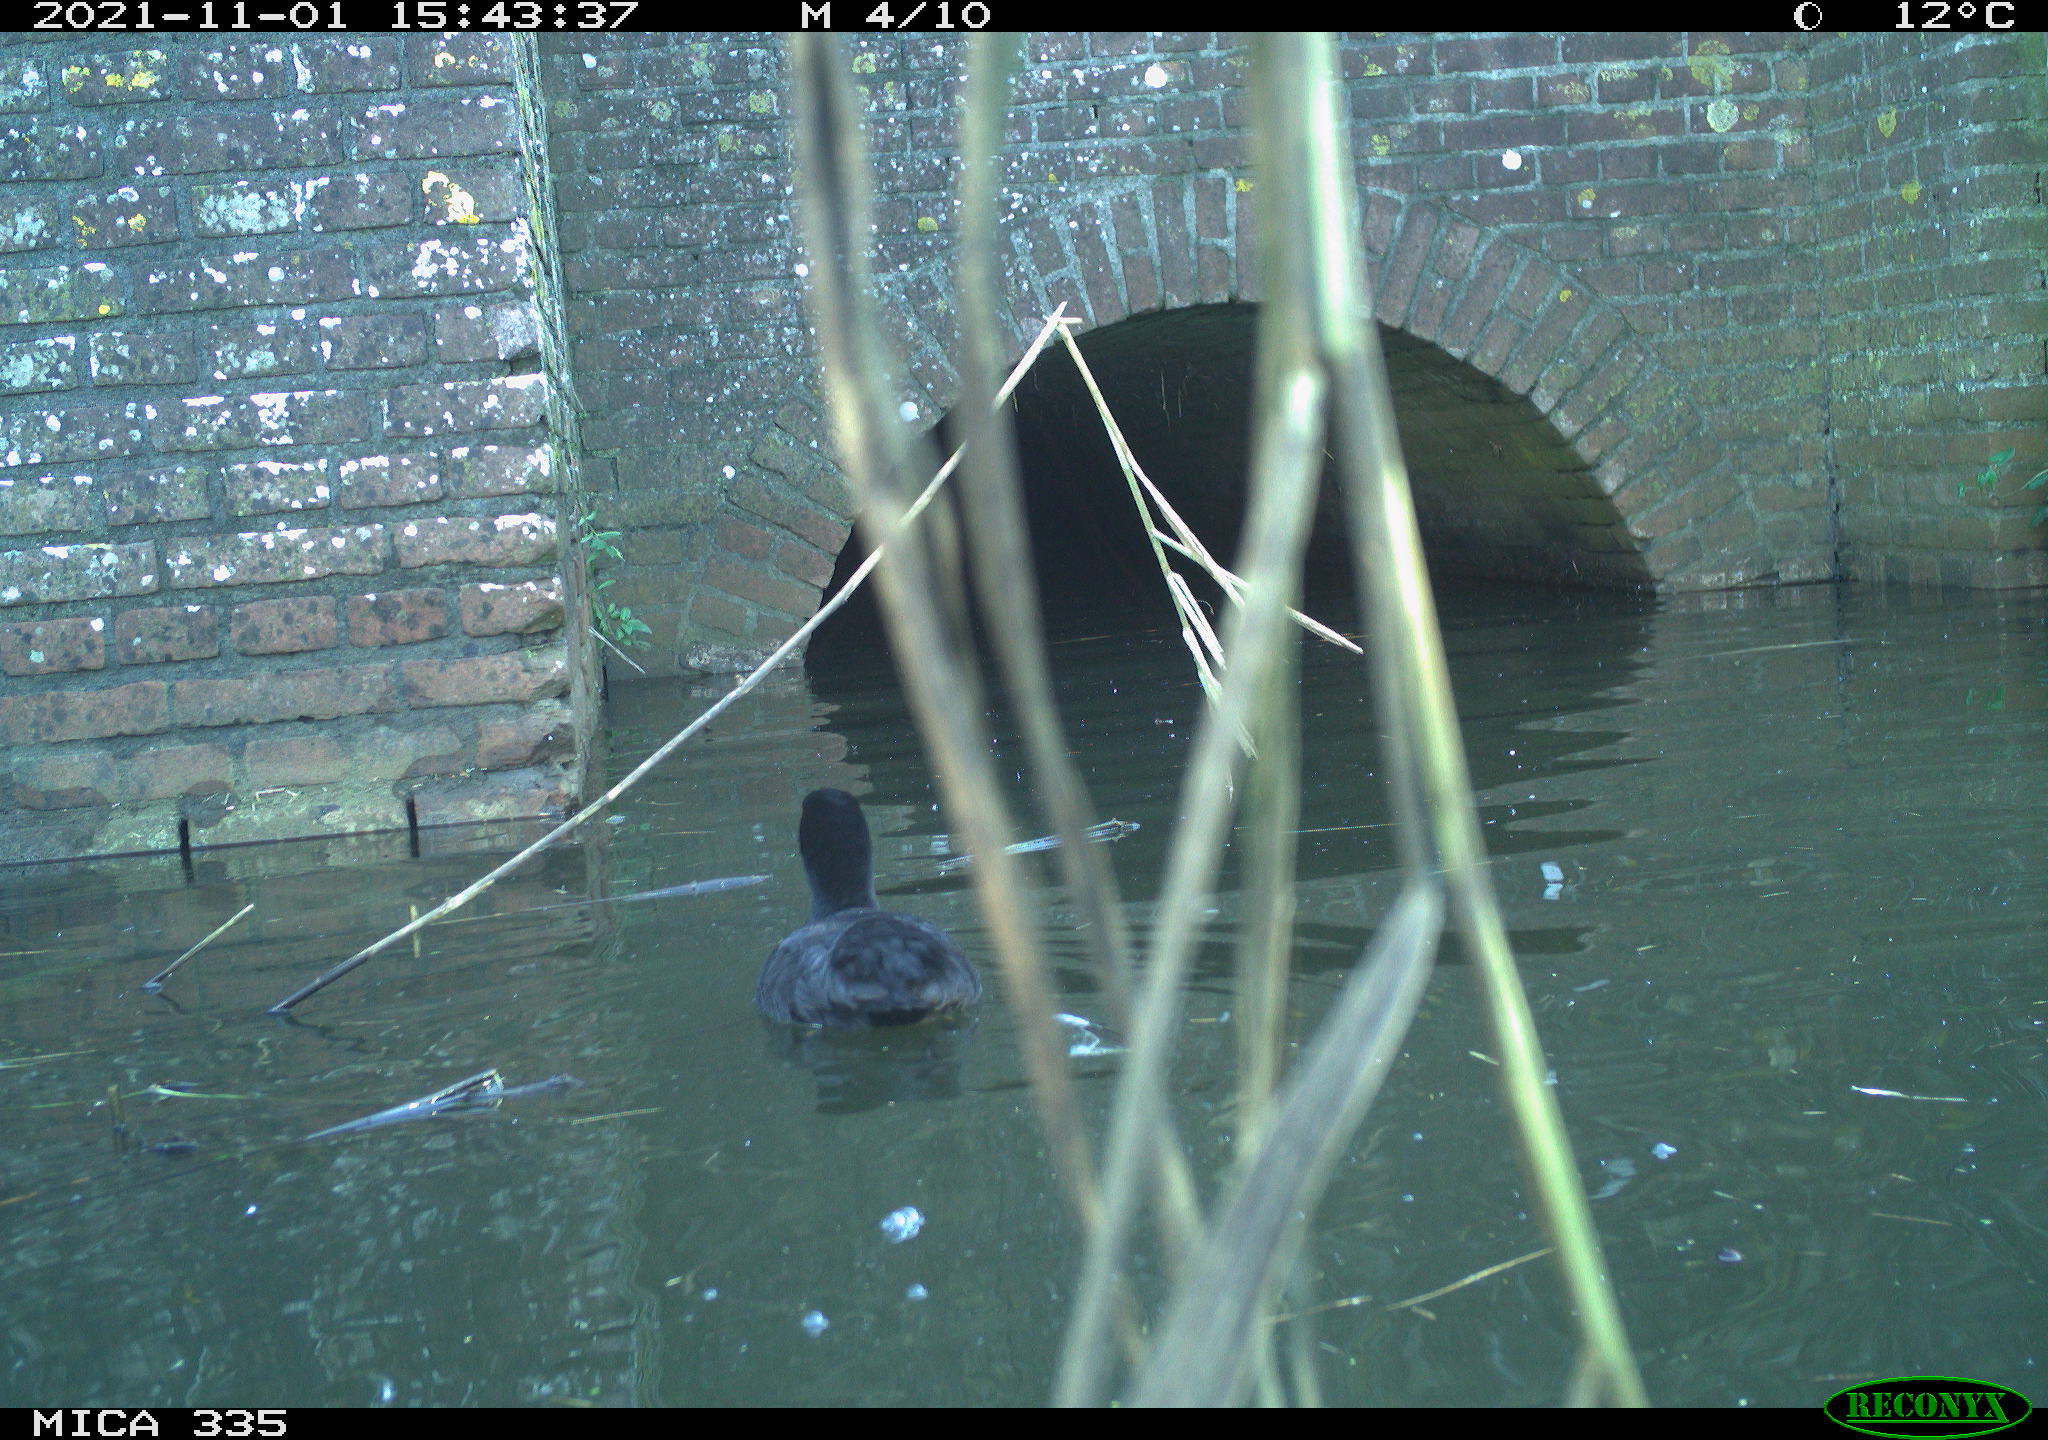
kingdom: Animalia
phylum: Chordata
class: Aves
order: Gruiformes
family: Rallidae
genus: Fulica
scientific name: Fulica atra
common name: Eurasian coot
